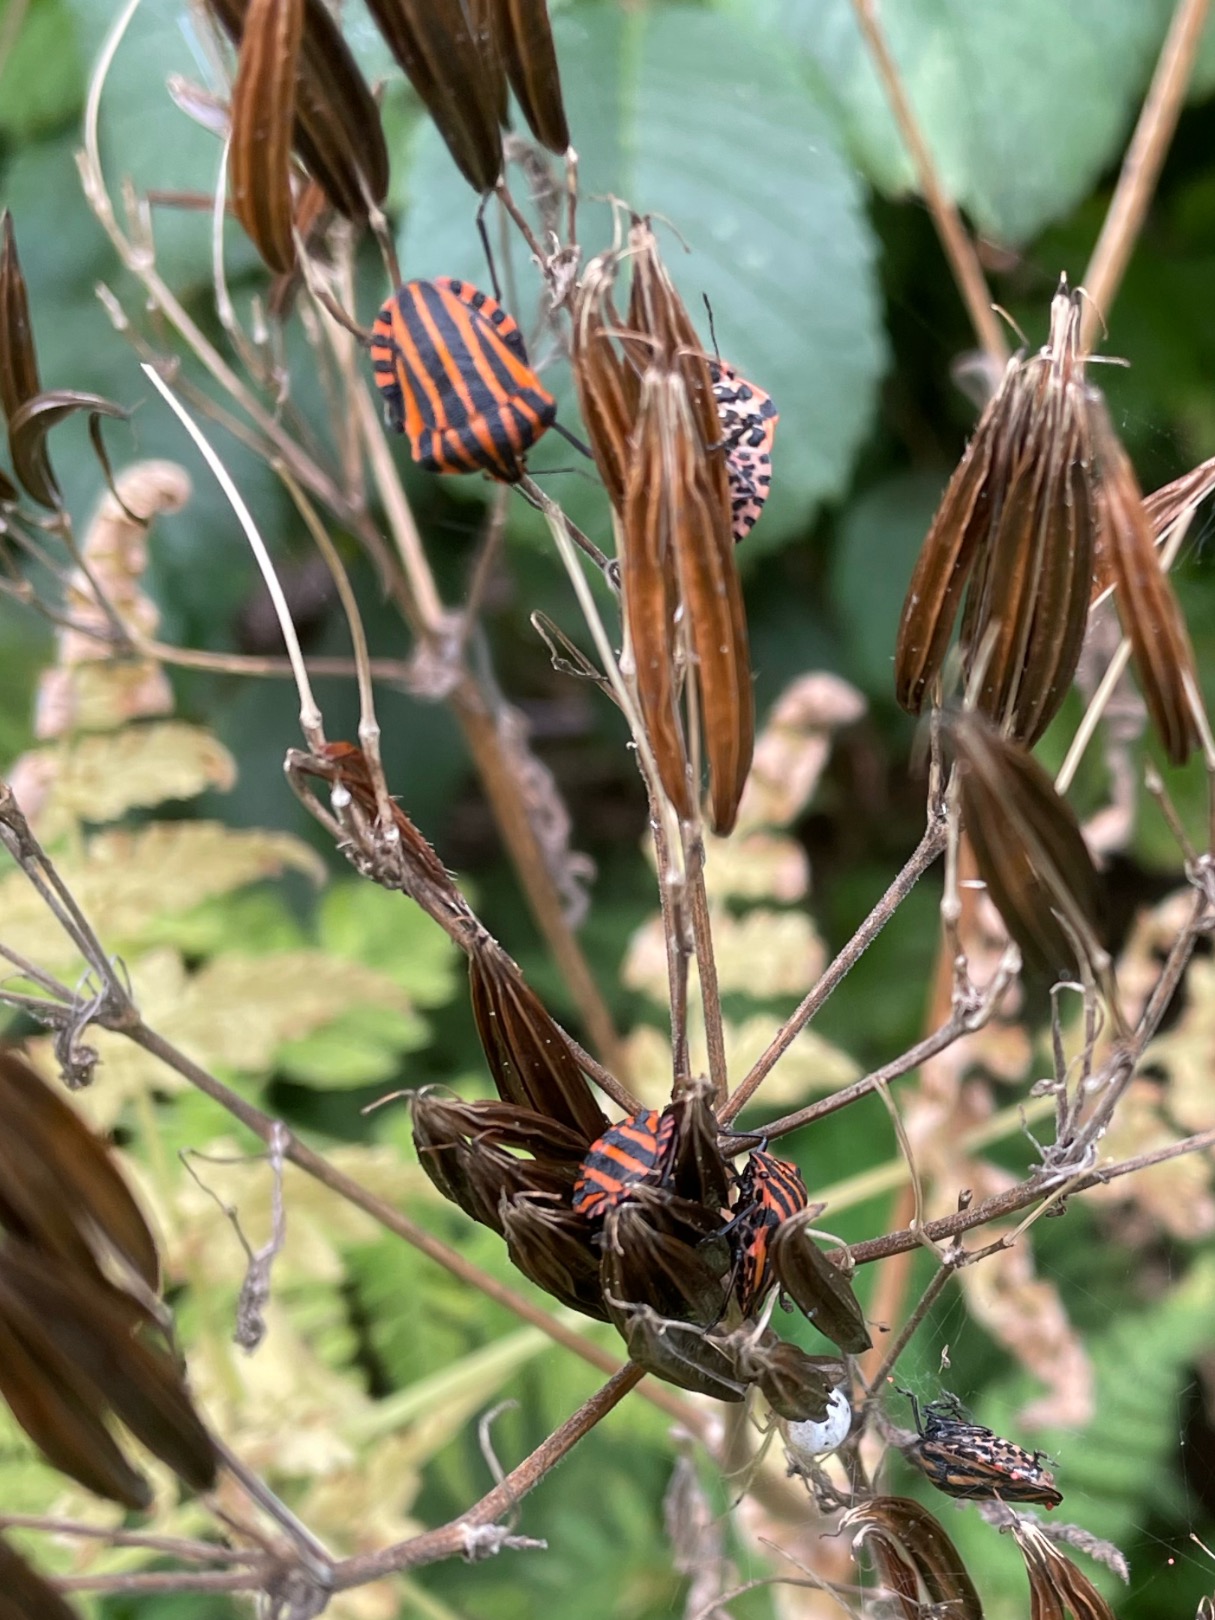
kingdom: Animalia
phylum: Arthropoda
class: Insecta
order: Hemiptera
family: Pentatomidae
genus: Graphosoma
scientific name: Graphosoma italicum
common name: Stribetæge
